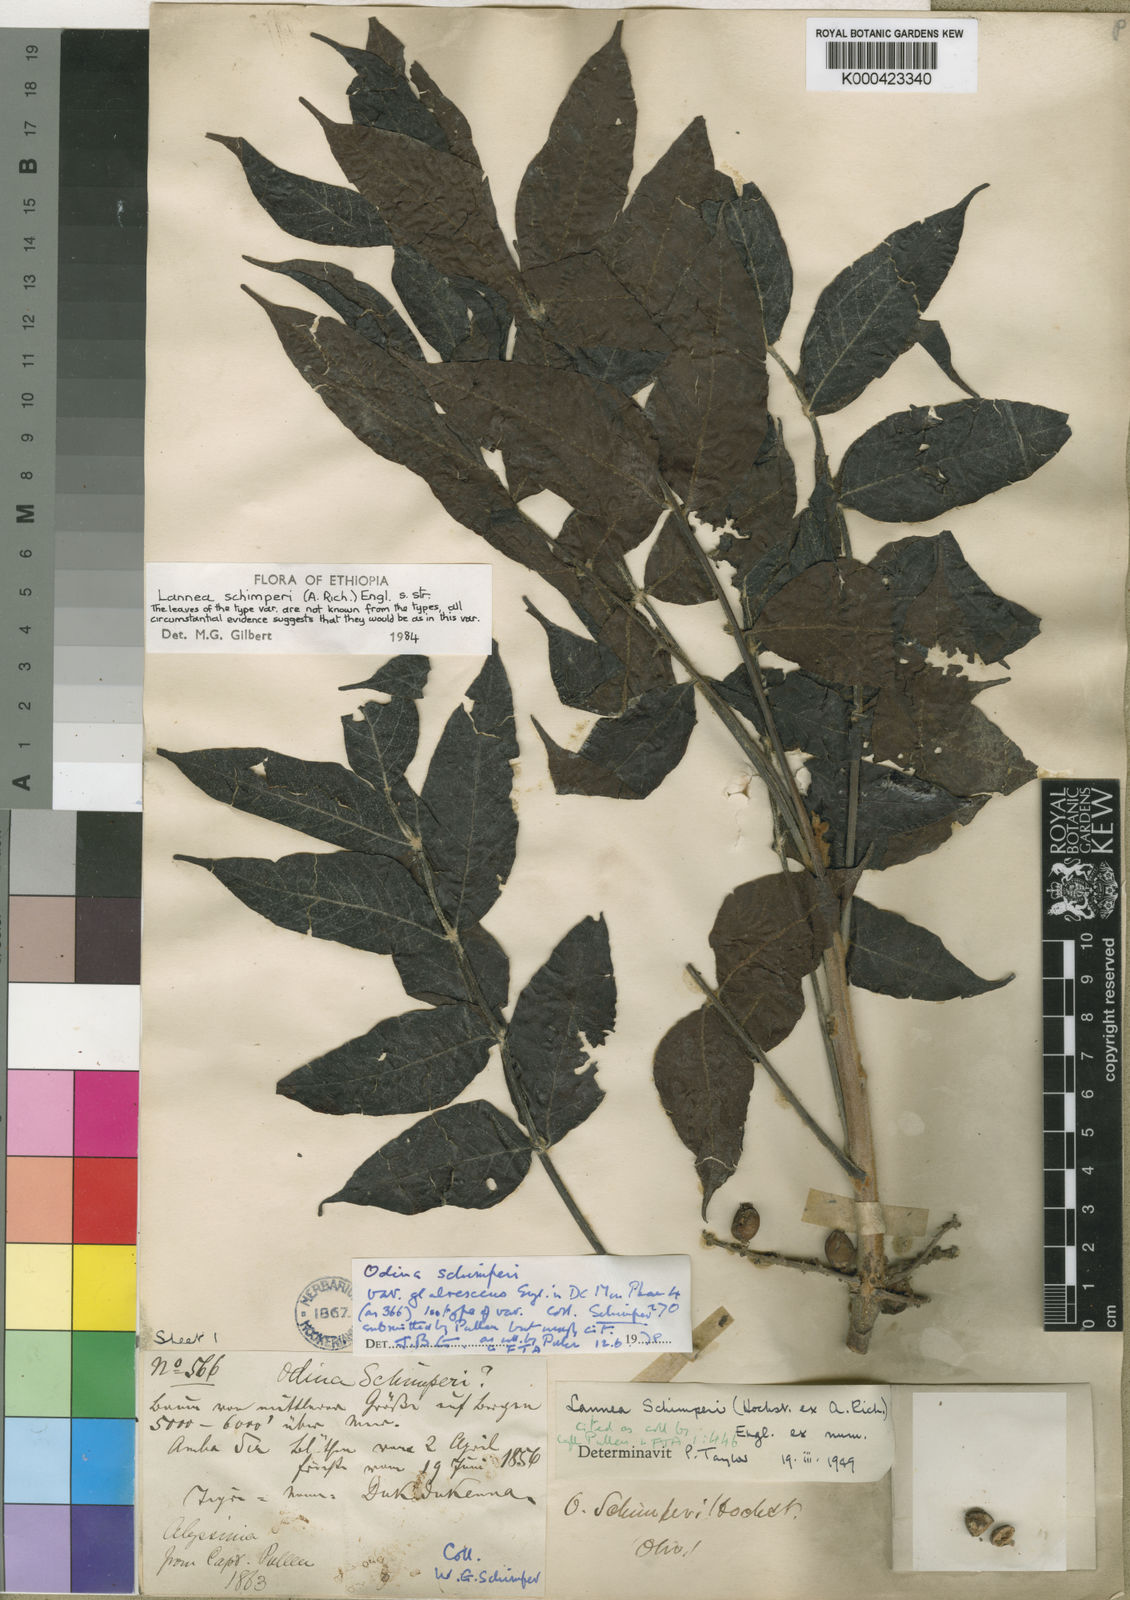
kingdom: Plantae
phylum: Tracheophyta
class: Magnoliopsida
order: Sapindales
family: Anacardiaceae
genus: Lannea
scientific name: Lannea schimperi
